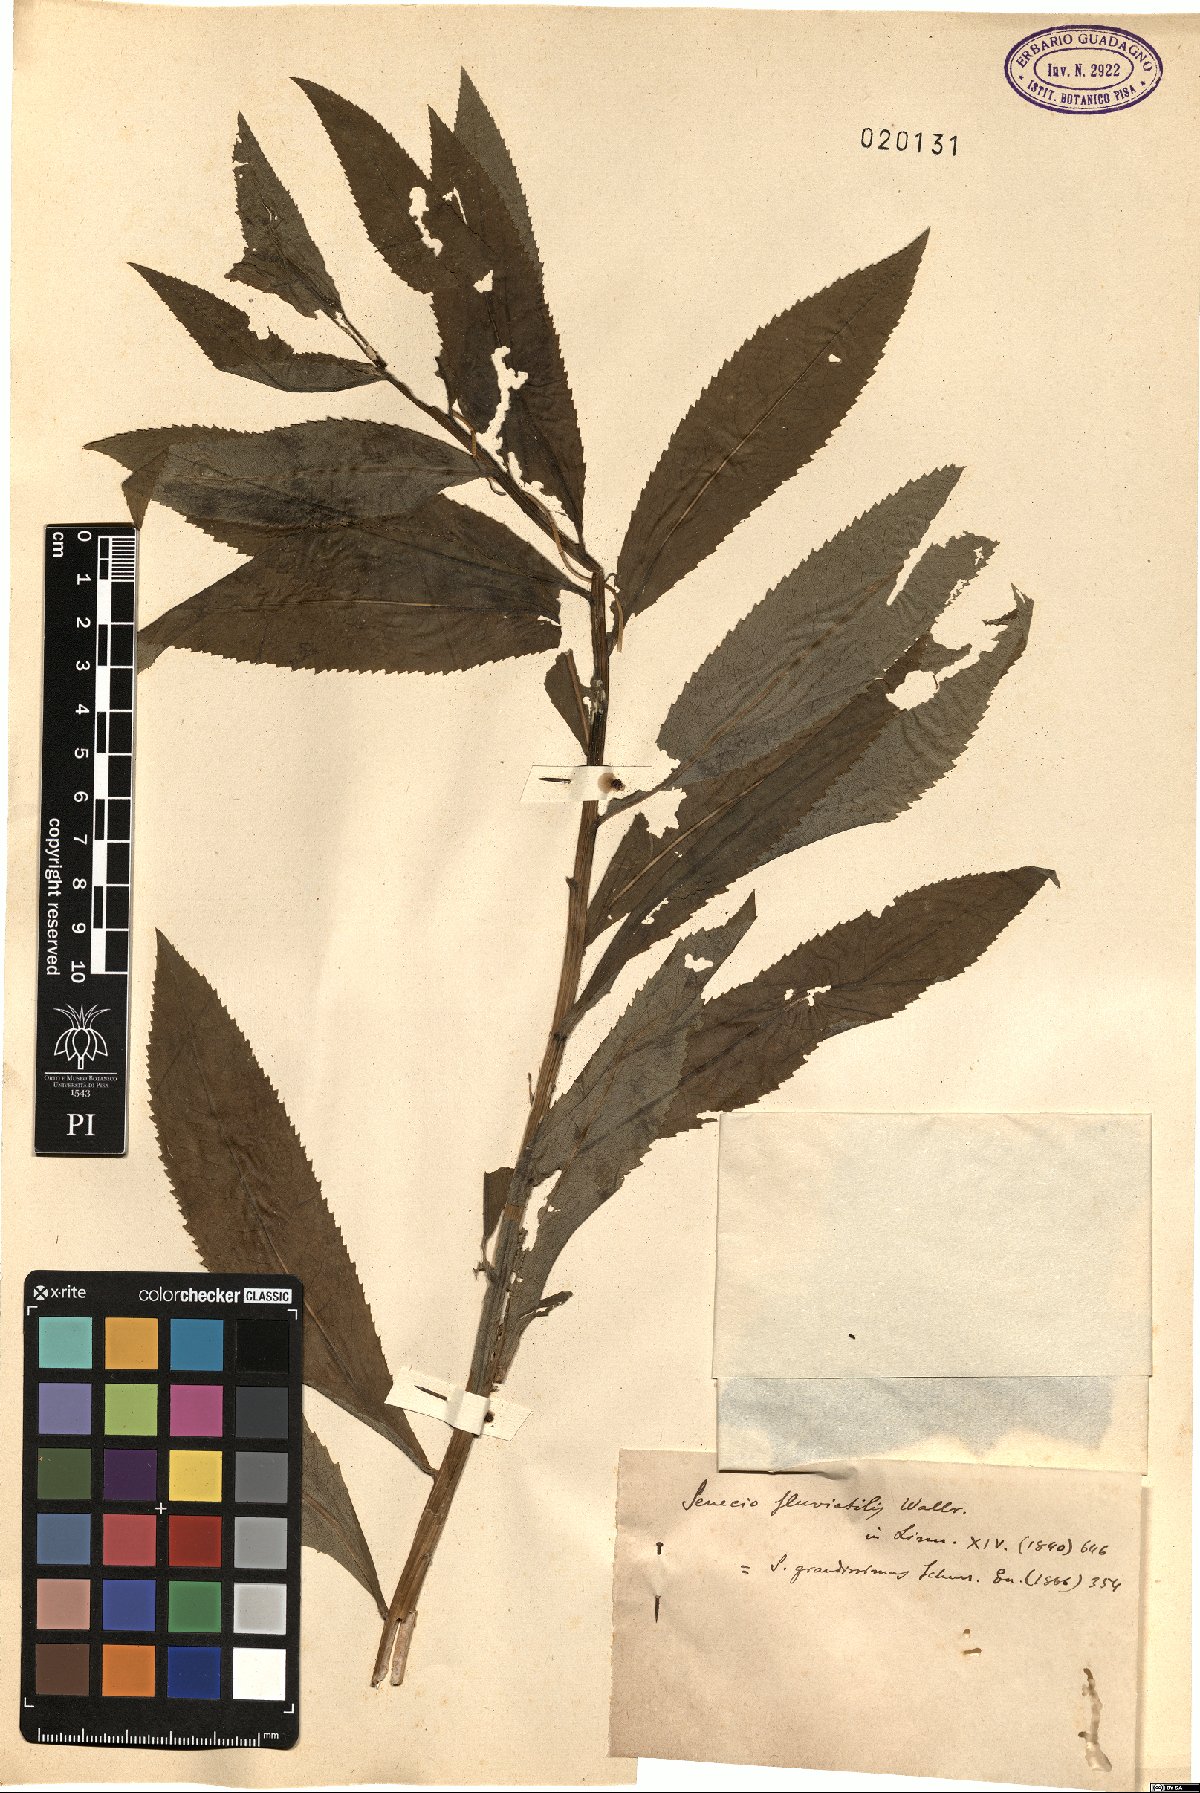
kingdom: Plantae
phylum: Tracheophyta
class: Magnoliopsida
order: Asterales
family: Asteraceae
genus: Senecio
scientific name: Senecio sarracenicus
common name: Broad-leaved ragwort
